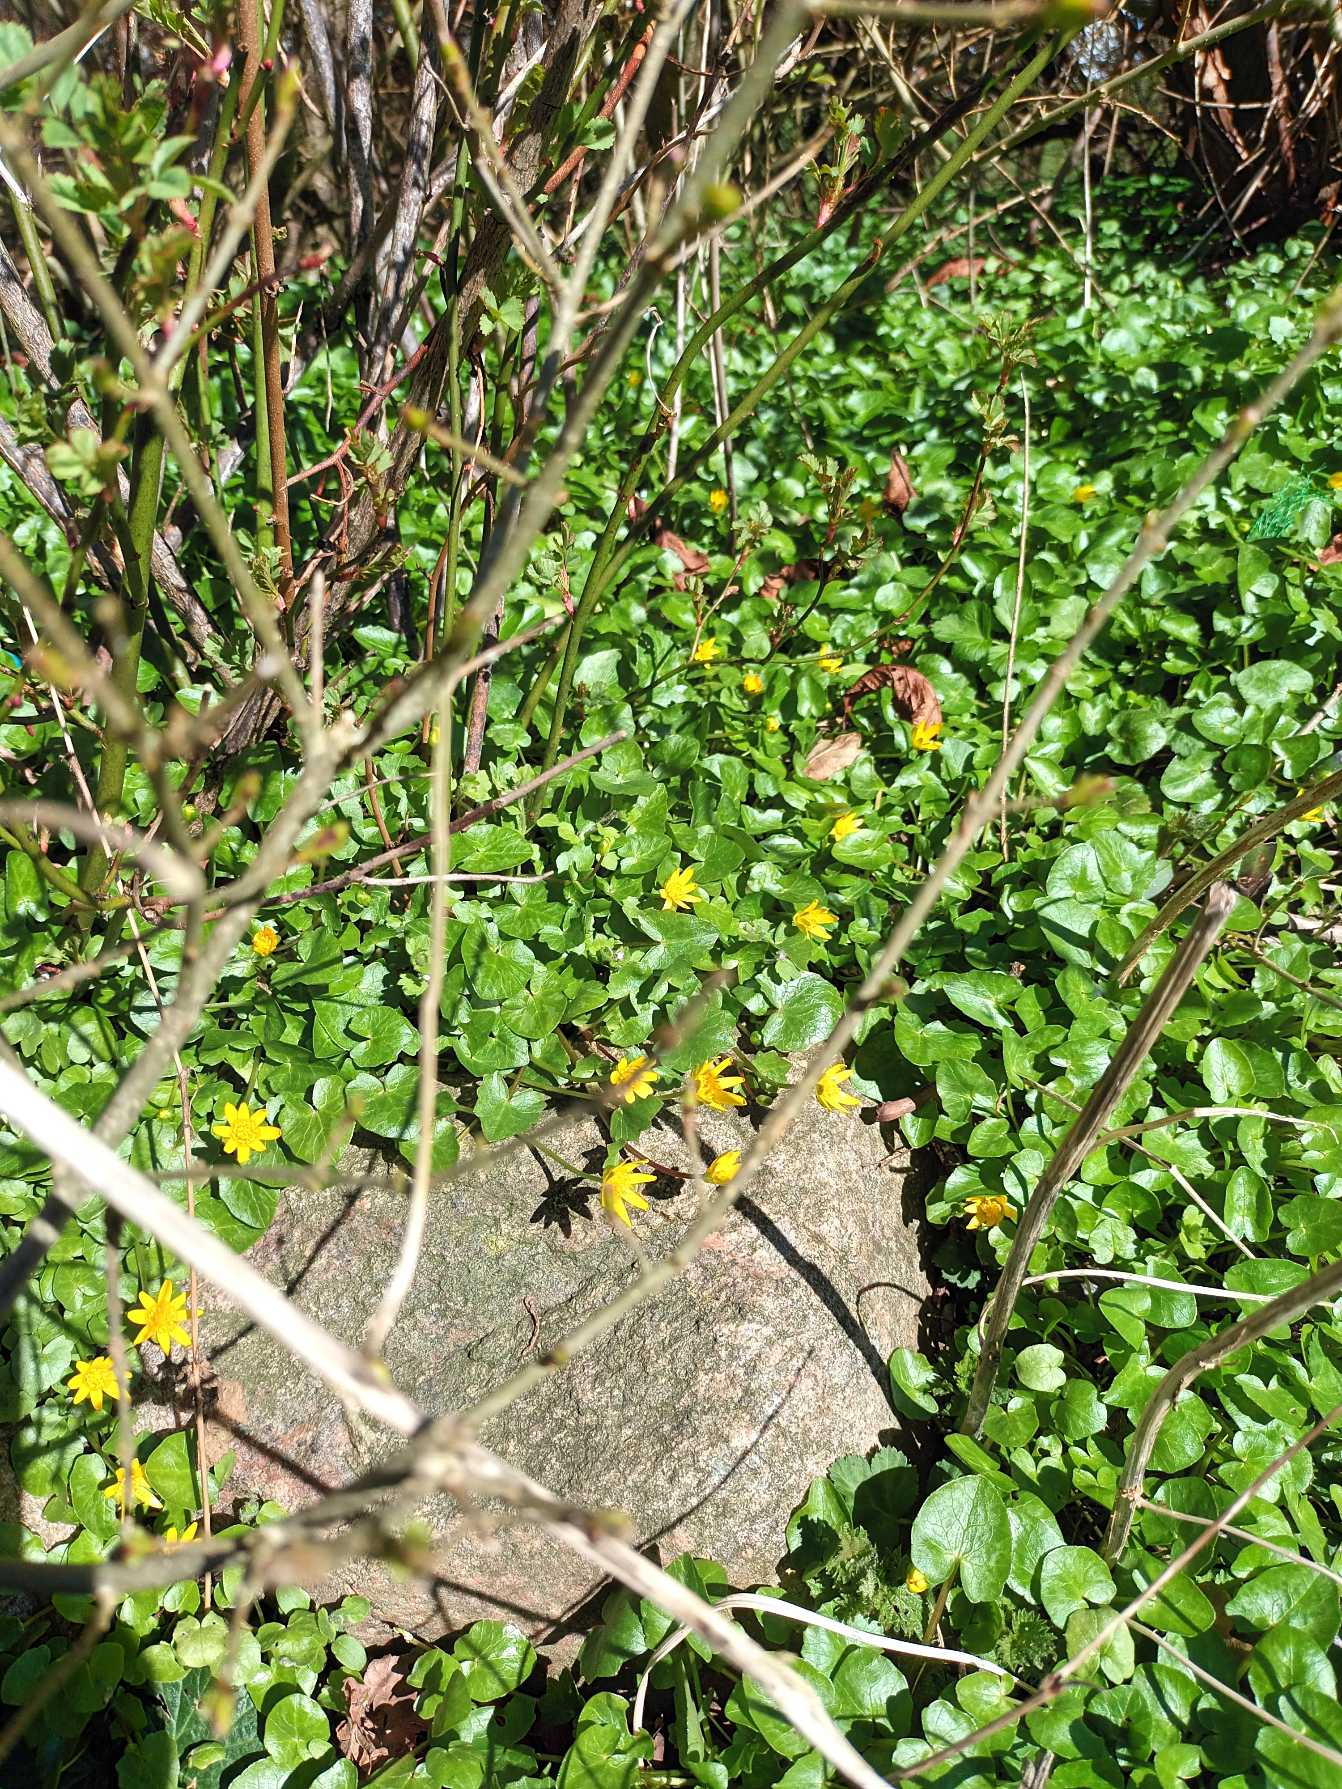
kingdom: Plantae
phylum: Tracheophyta
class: Magnoliopsida
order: Ranunculales
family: Ranunculaceae
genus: Ficaria
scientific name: Ficaria verna
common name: Vorterod
